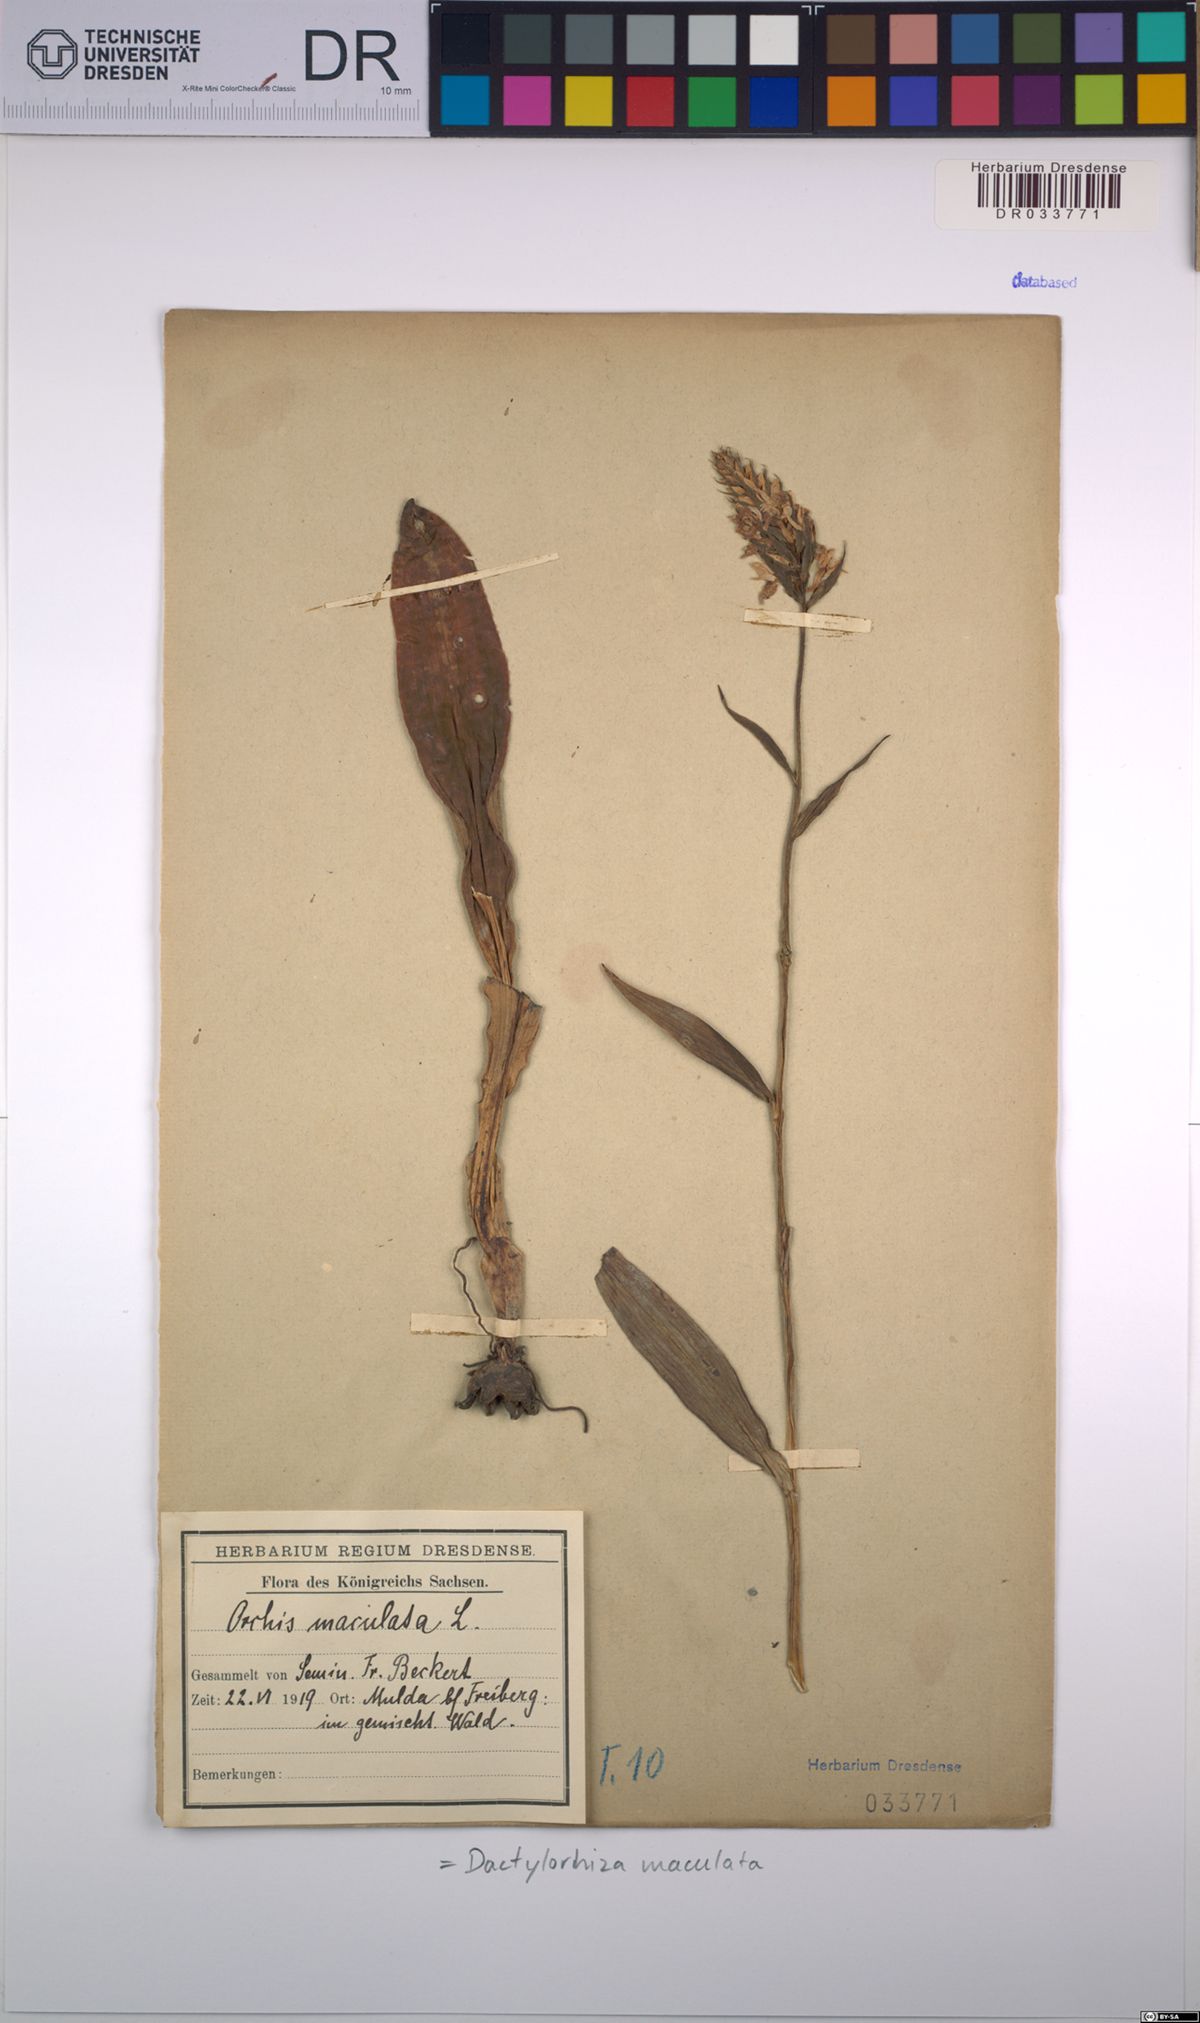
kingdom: Plantae
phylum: Tracheophyta
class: Liliopsida
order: Asparagales
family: Orchidaceae
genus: Dactylorhiza
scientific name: Dactylorhiza maculata
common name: Heath spotted-orchid
